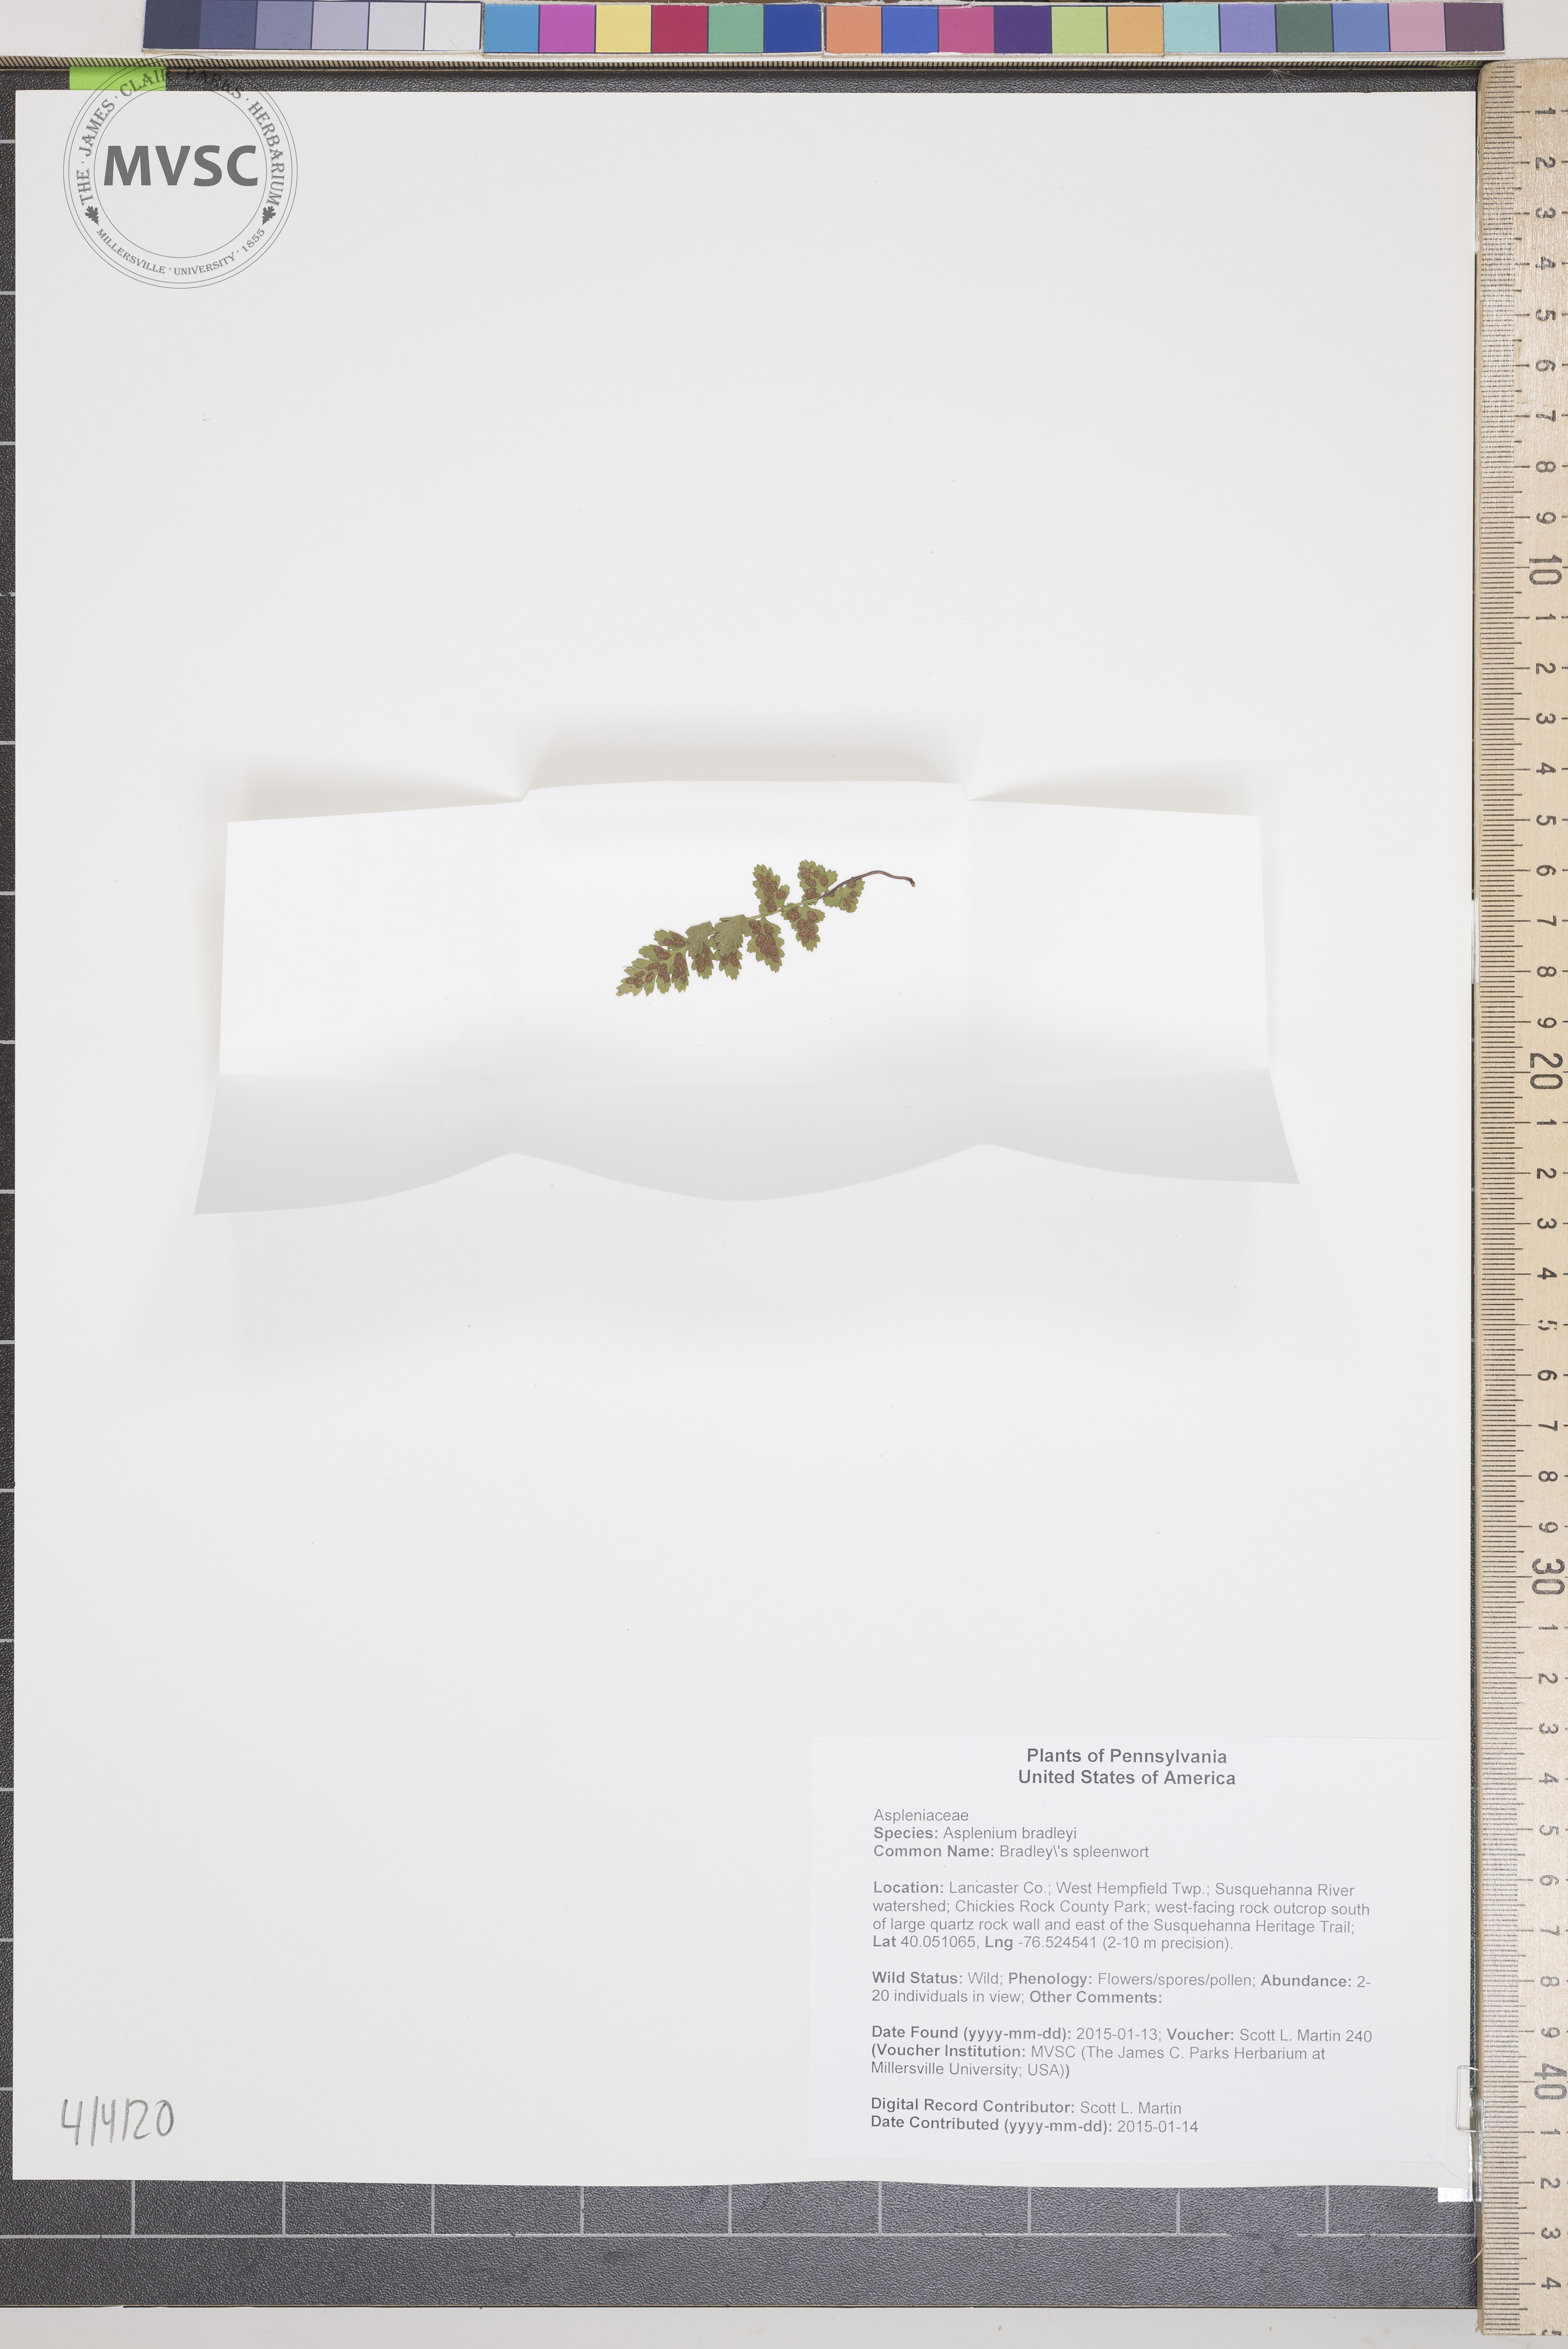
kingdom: Plantae
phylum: Tracheophyta
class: Polypodiopsida
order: Polypodiales
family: Aspleniaceae
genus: Asplenium
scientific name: Asplenium bradleyi
